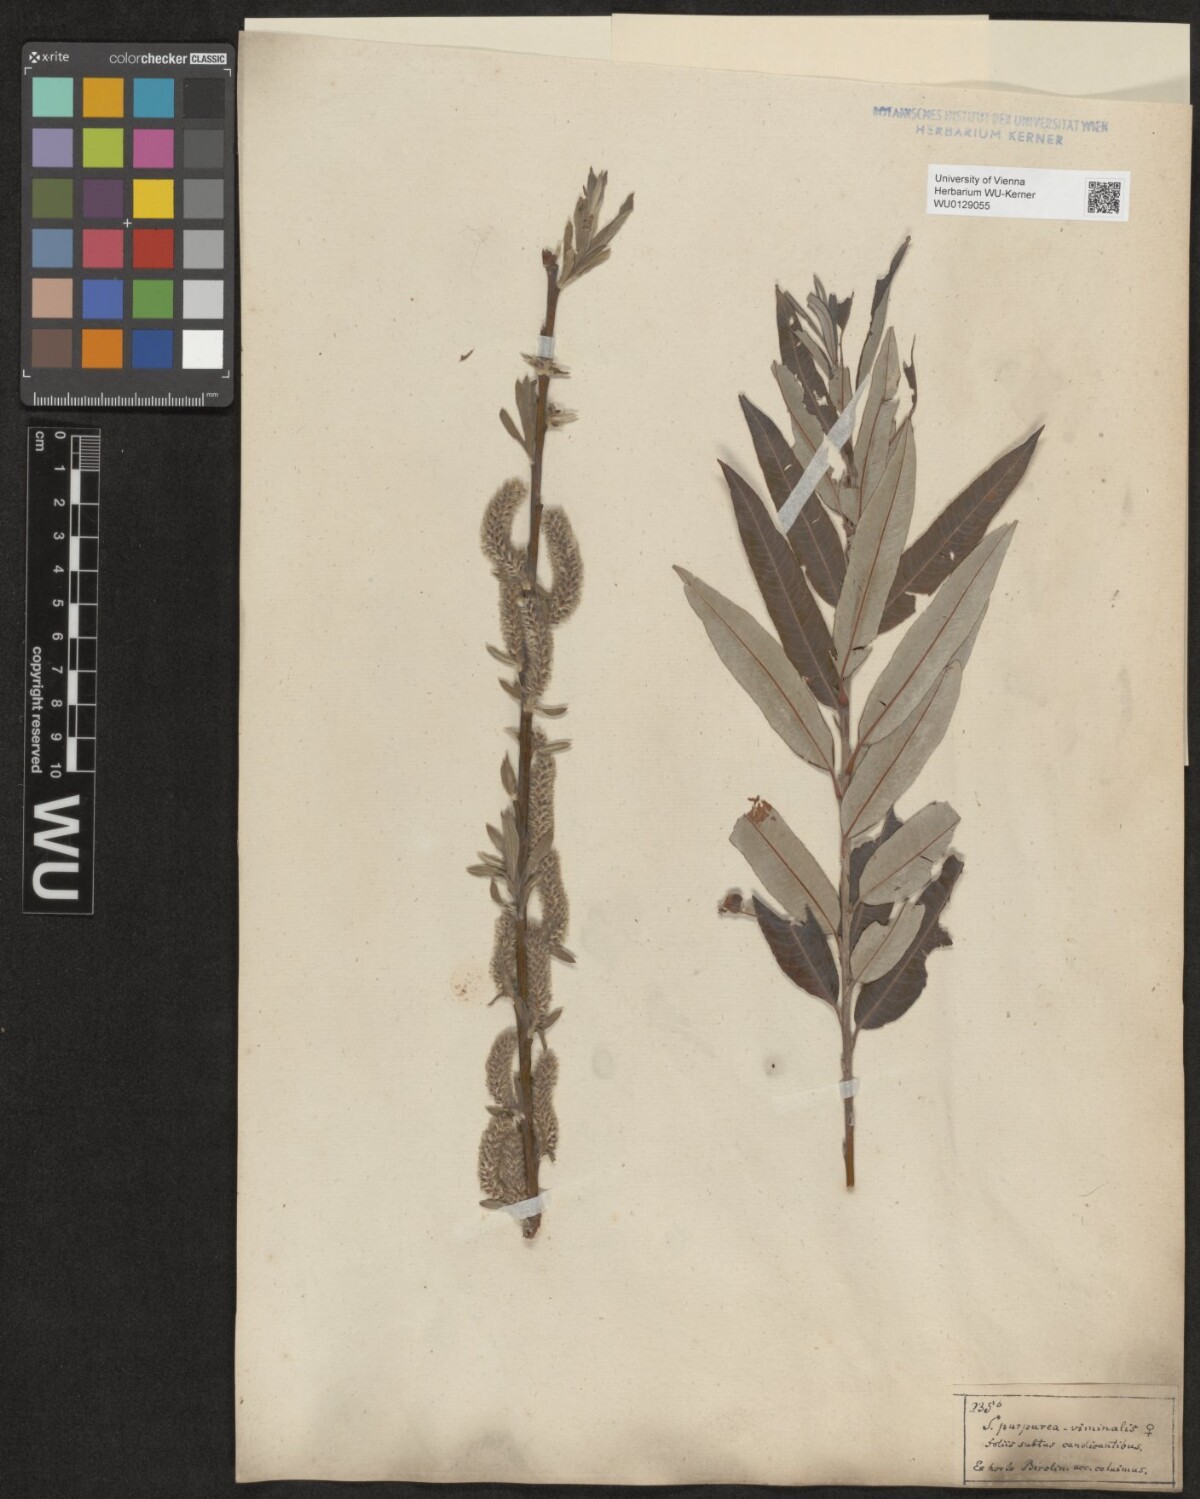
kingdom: Plantae
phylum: Tracheophyta
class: Magnoliopsida
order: Malpighiales
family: Salicaceae
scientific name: Salicaceae
